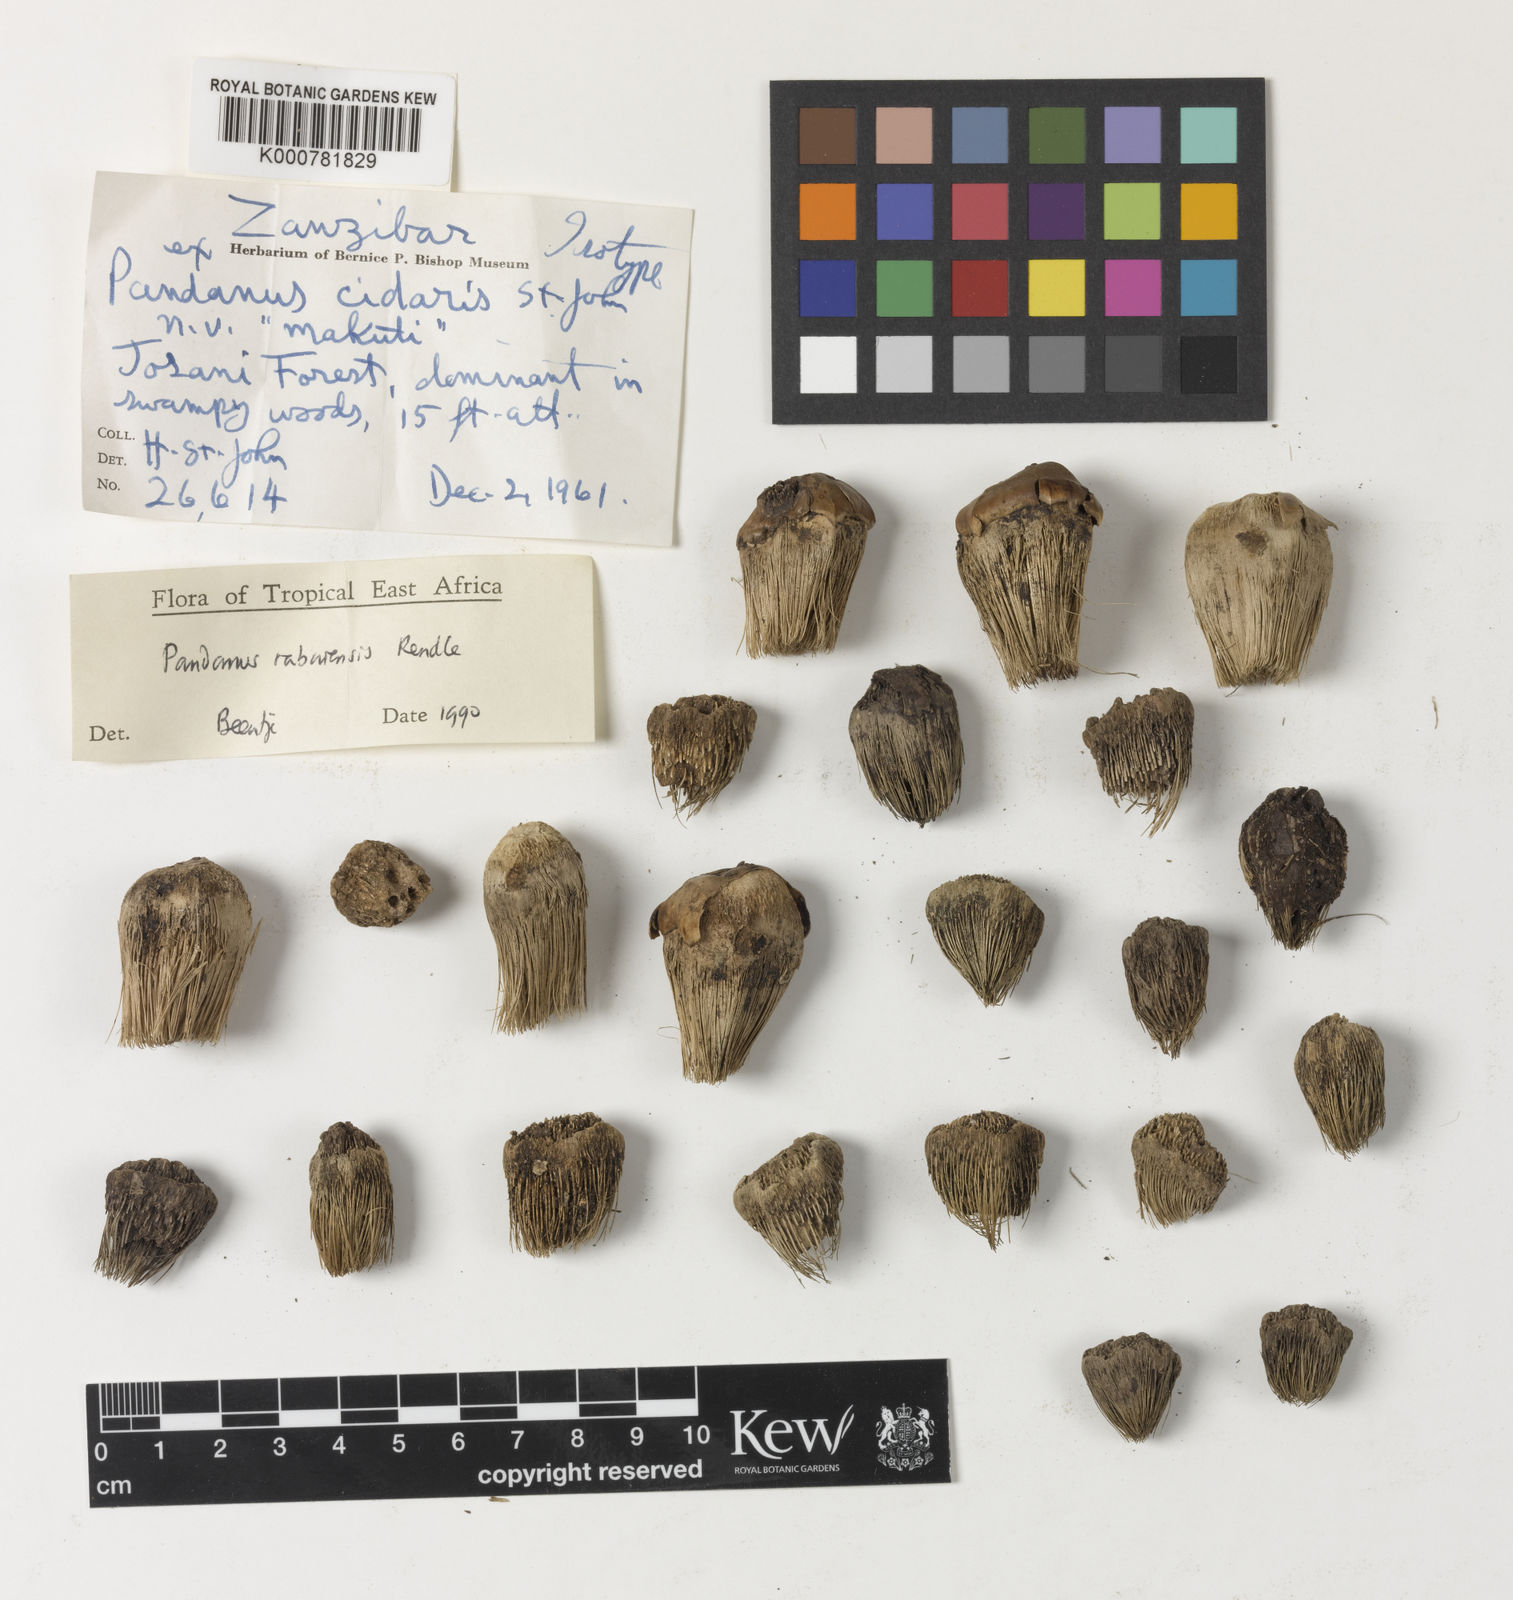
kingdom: Plantae
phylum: Tracheophyta
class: Liliopsida
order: Pandanales
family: Pandanaceae
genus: Pandanus
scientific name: Pandanus rabaiensis
